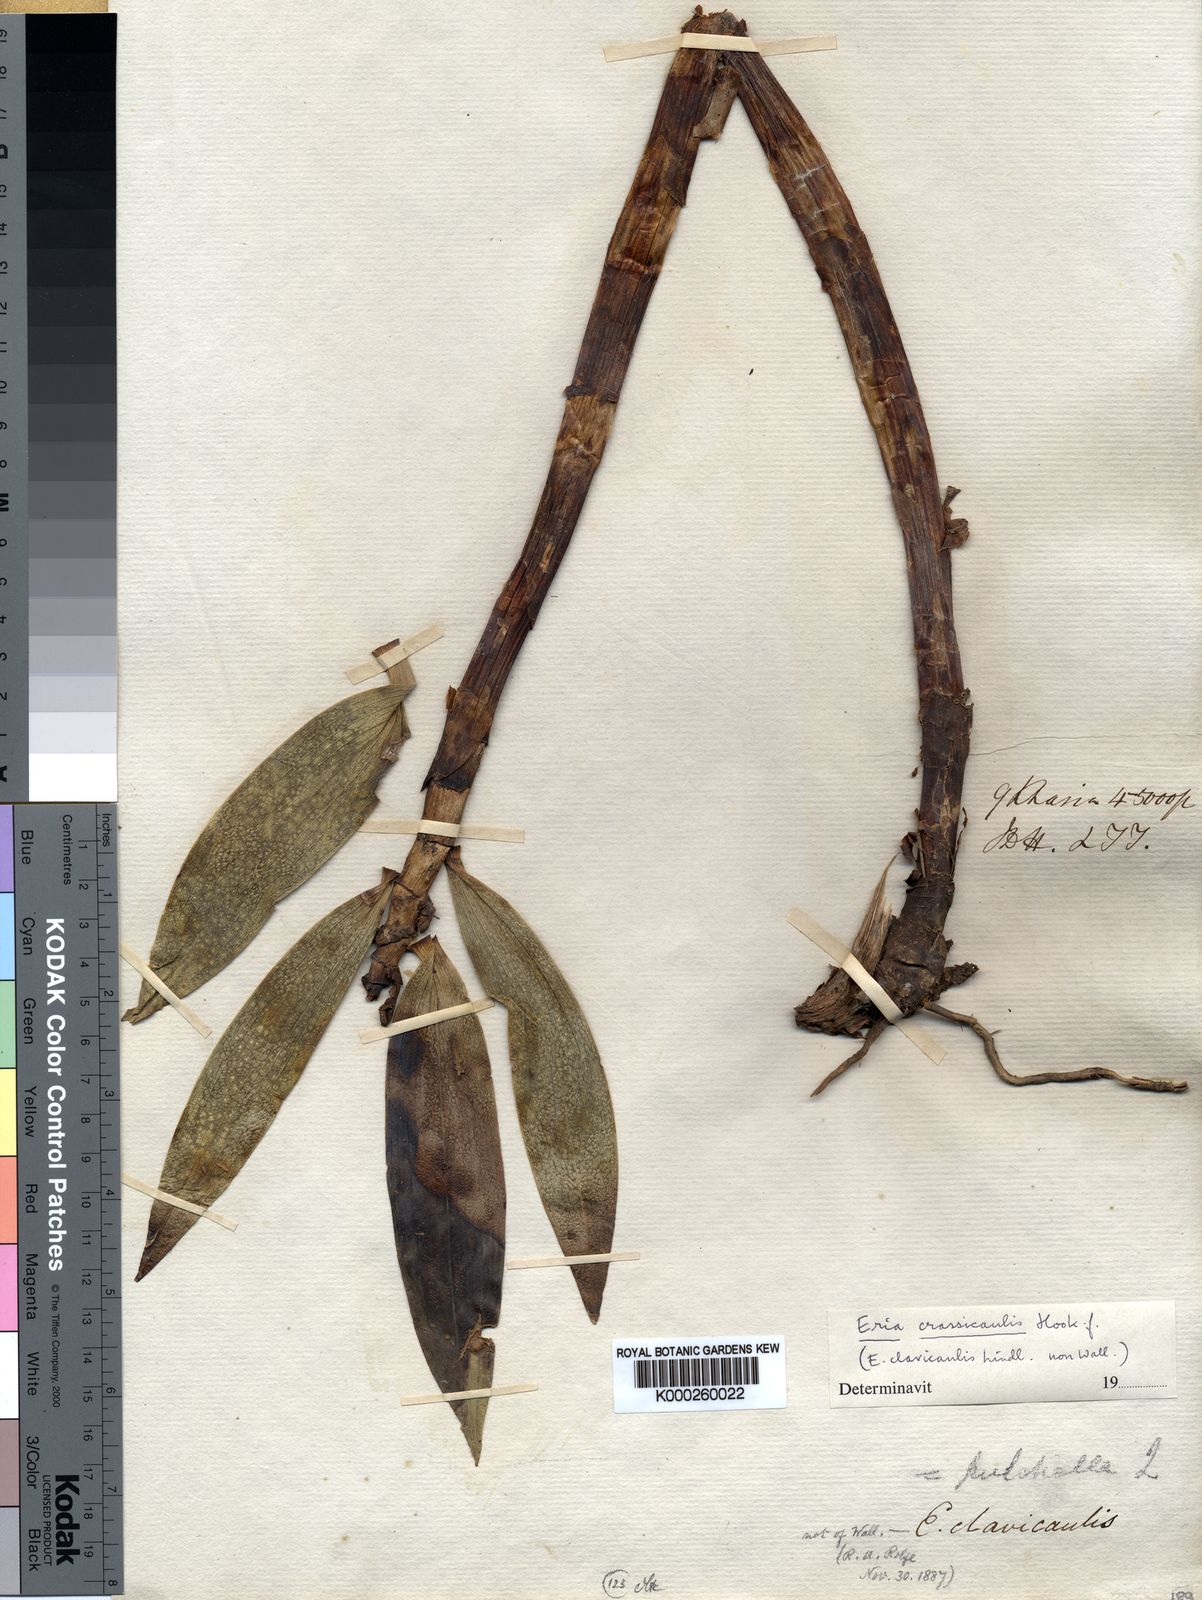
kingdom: Plantae
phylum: Tracheophyta
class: Liliopsida
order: Asparagales
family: Orchidaceae
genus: Bambuseria
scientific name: Bambuseria crassicaulis
